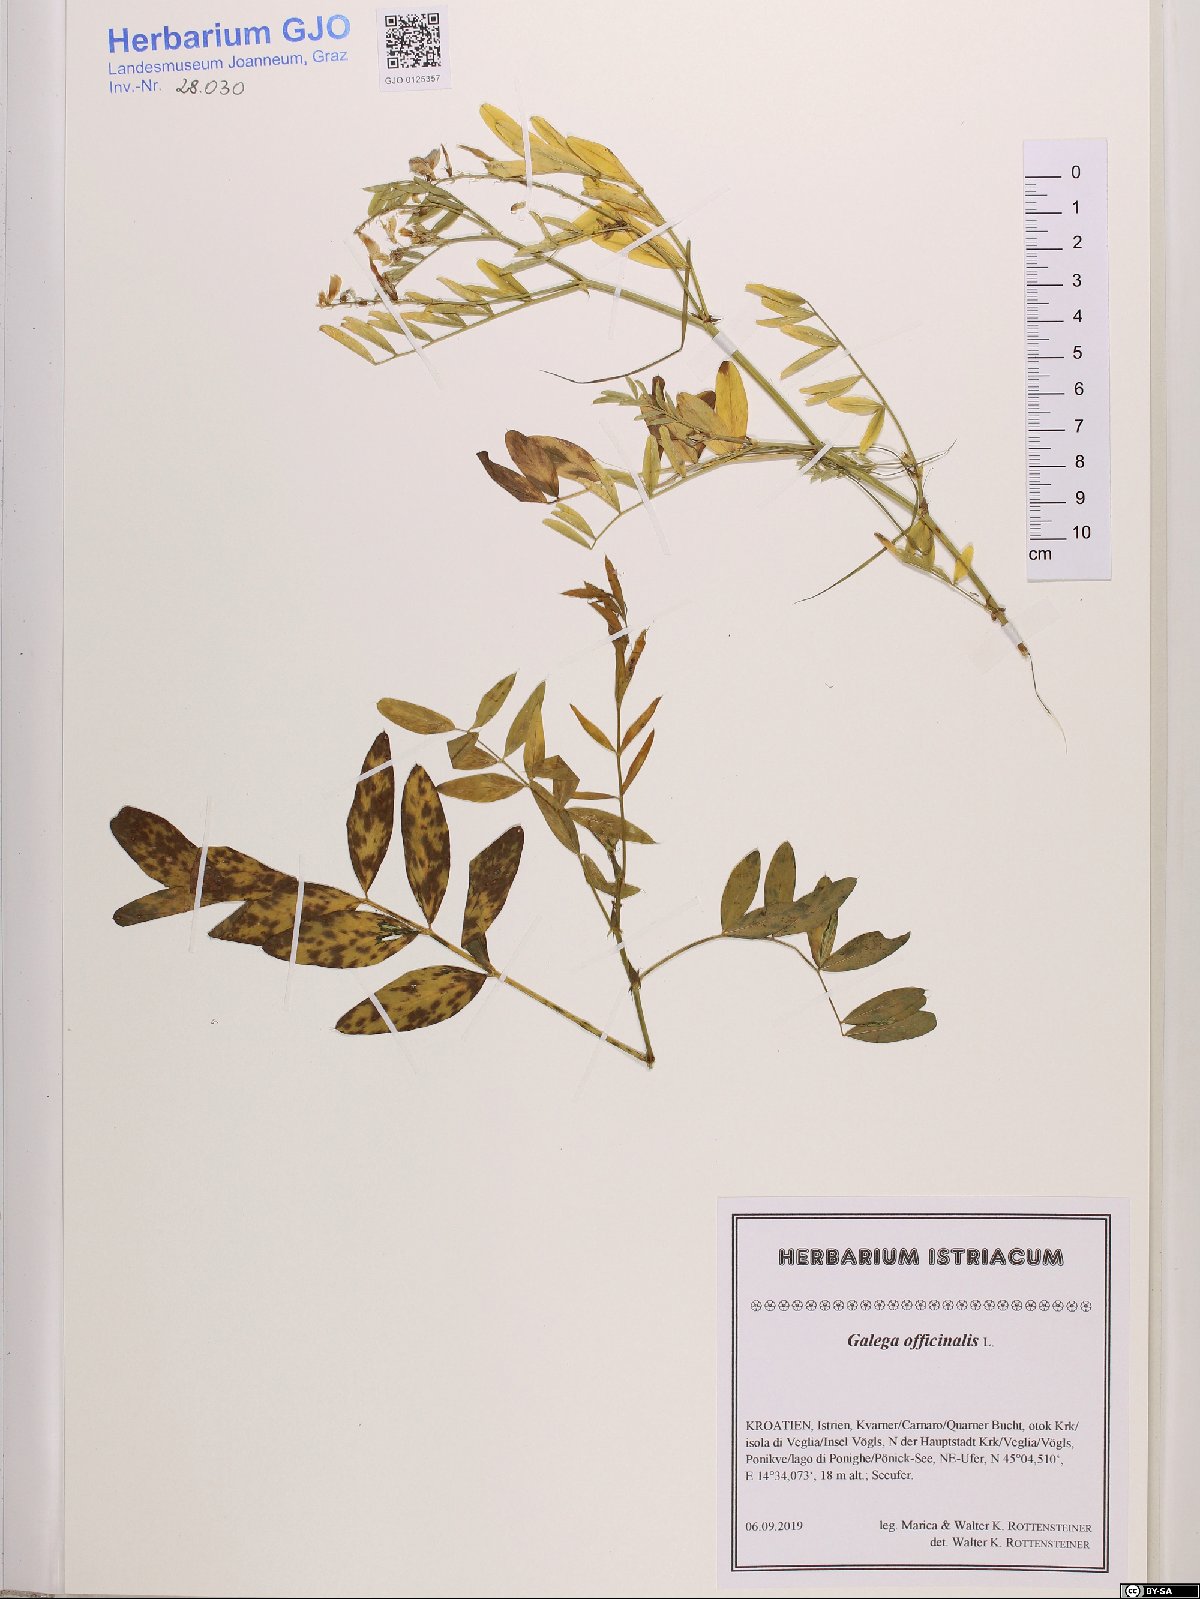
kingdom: Plantae
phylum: Tracheophyta
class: Magnoliopsida
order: Fabales
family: Fabaceae
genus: Galega
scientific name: Galega officinalis
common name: Goat's-rue
